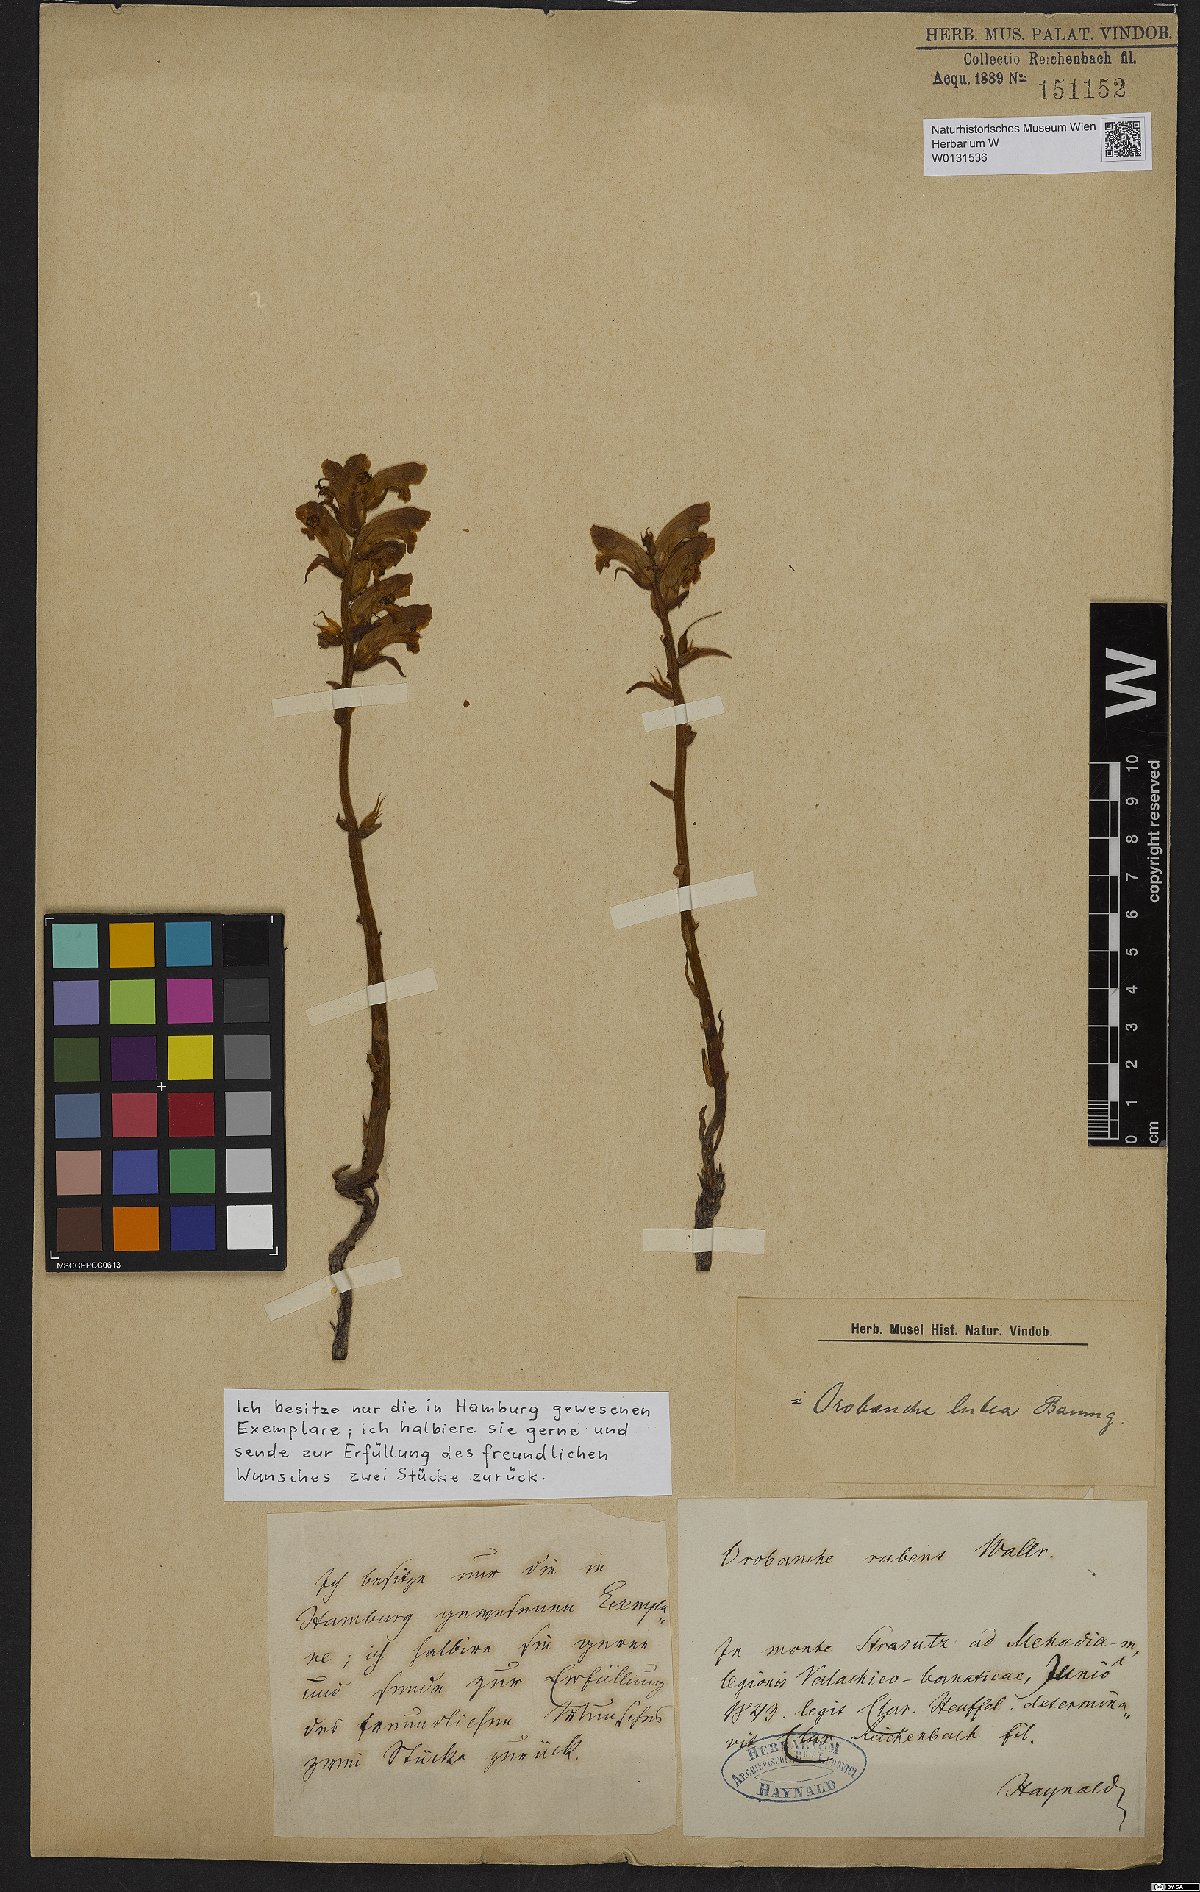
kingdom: Plantae
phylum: Tracheophyta
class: Magnoliopsida
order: Lamiales
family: Orobanchaceae
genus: Orobanche
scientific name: Orobanche lutea
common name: Yellow broomrape
